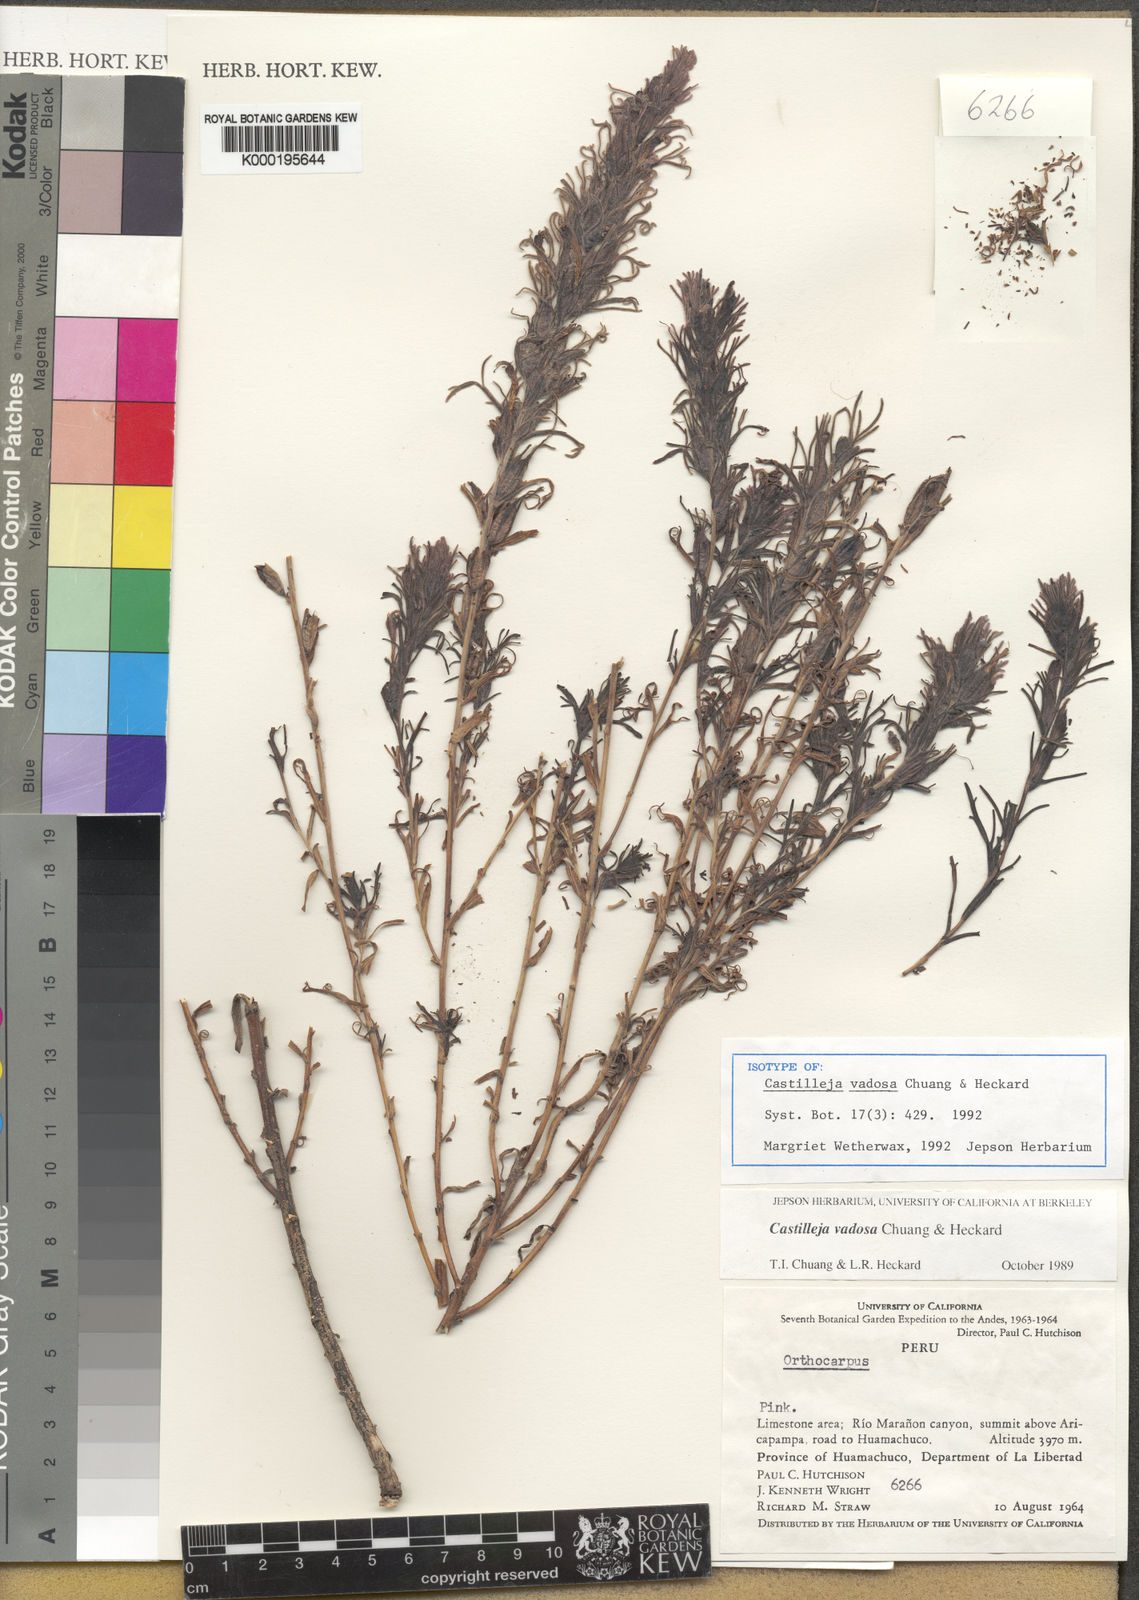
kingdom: Plantae
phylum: Tracheophyta
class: Magnoliopsida
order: Lamiales
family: Orobanchaceae
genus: Castilleja
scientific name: Castilleja vadosa
